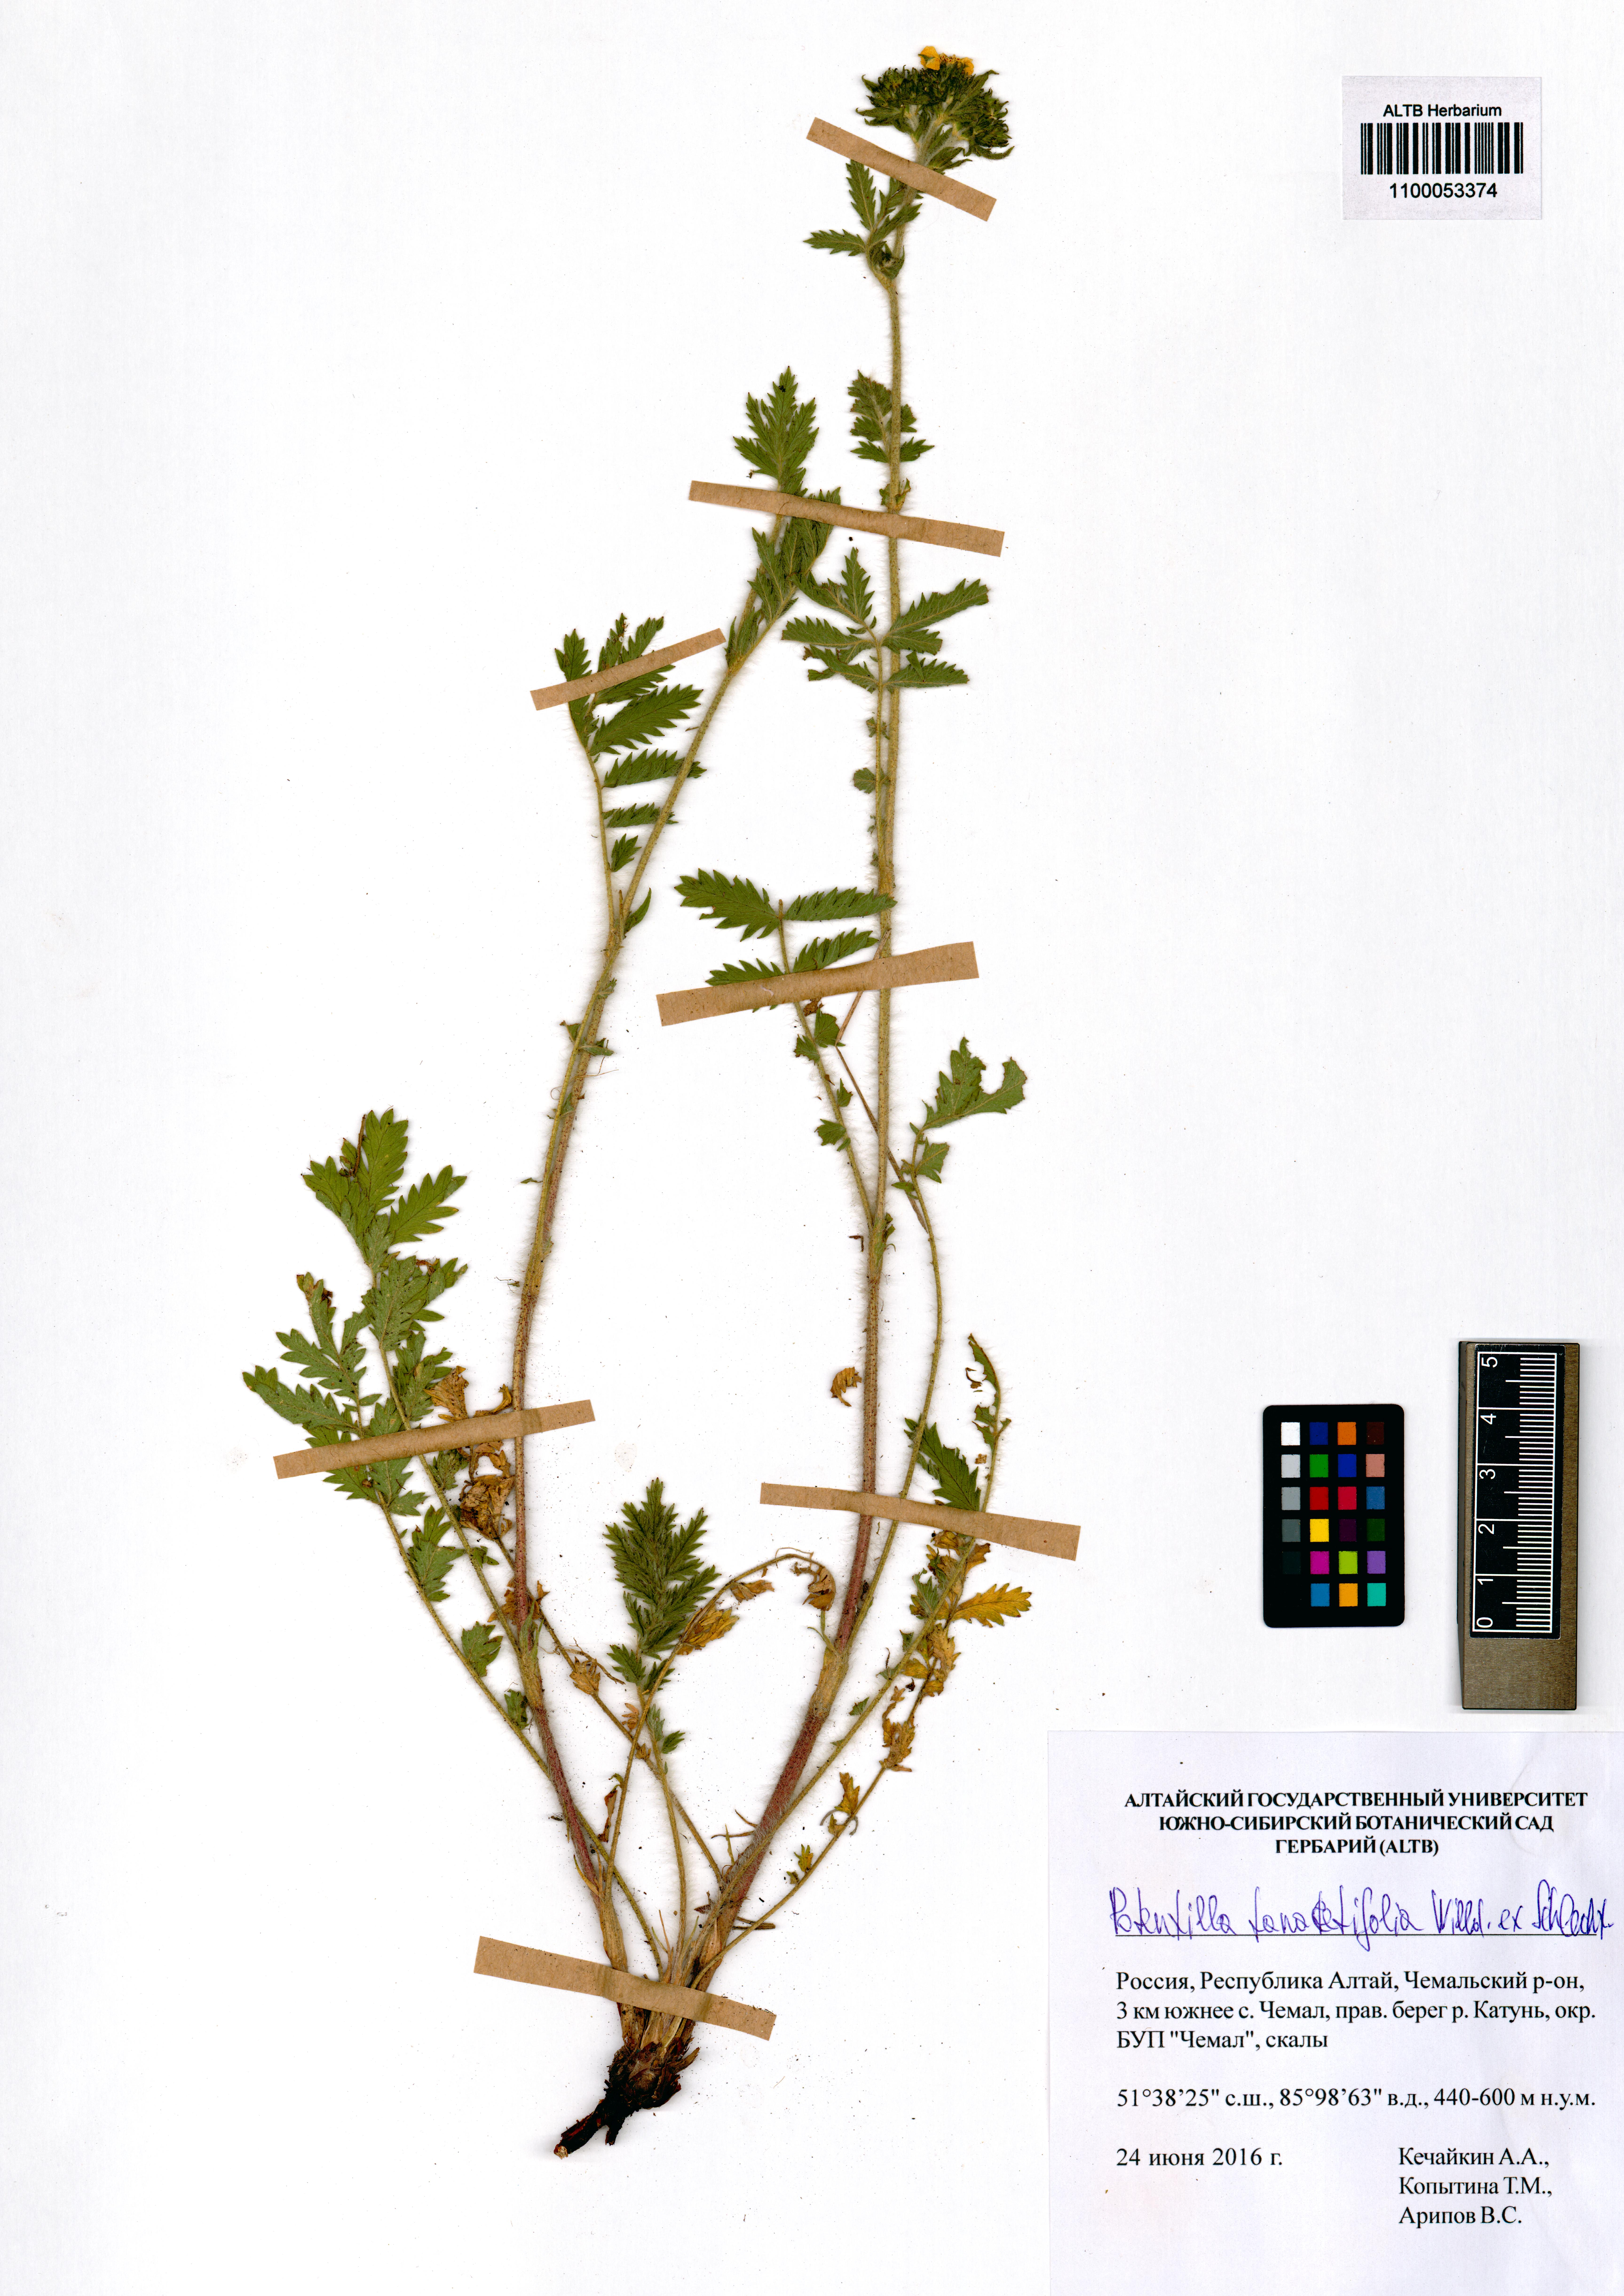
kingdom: Plantae
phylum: Tracheophyta
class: Magnoliopsida
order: Rosales
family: Rosaceae
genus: Potentilla
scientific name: Potentilla tanacetifolia
